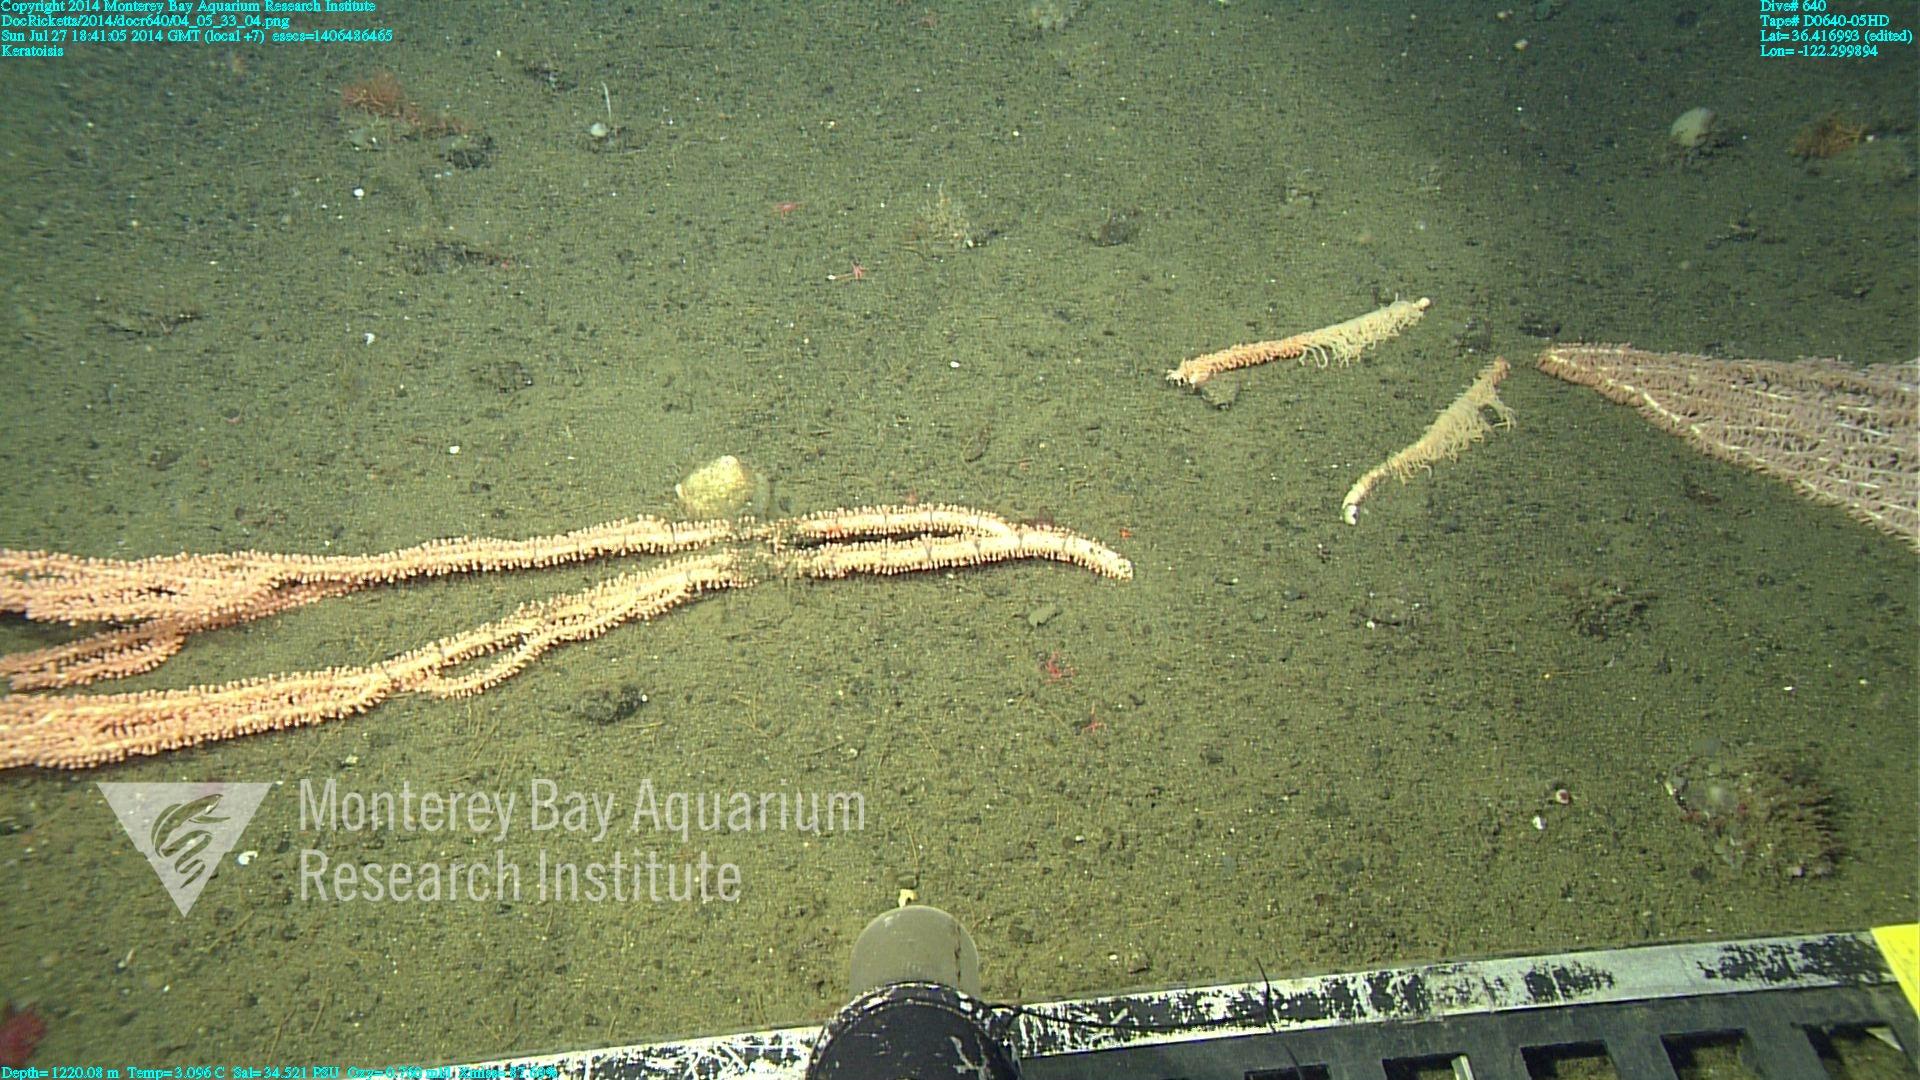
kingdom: Animalia
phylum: Cnidaria
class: Anthozoa
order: Scleralcyonacea
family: Keratoisididae
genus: Keratoisis
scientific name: Keratoisis
